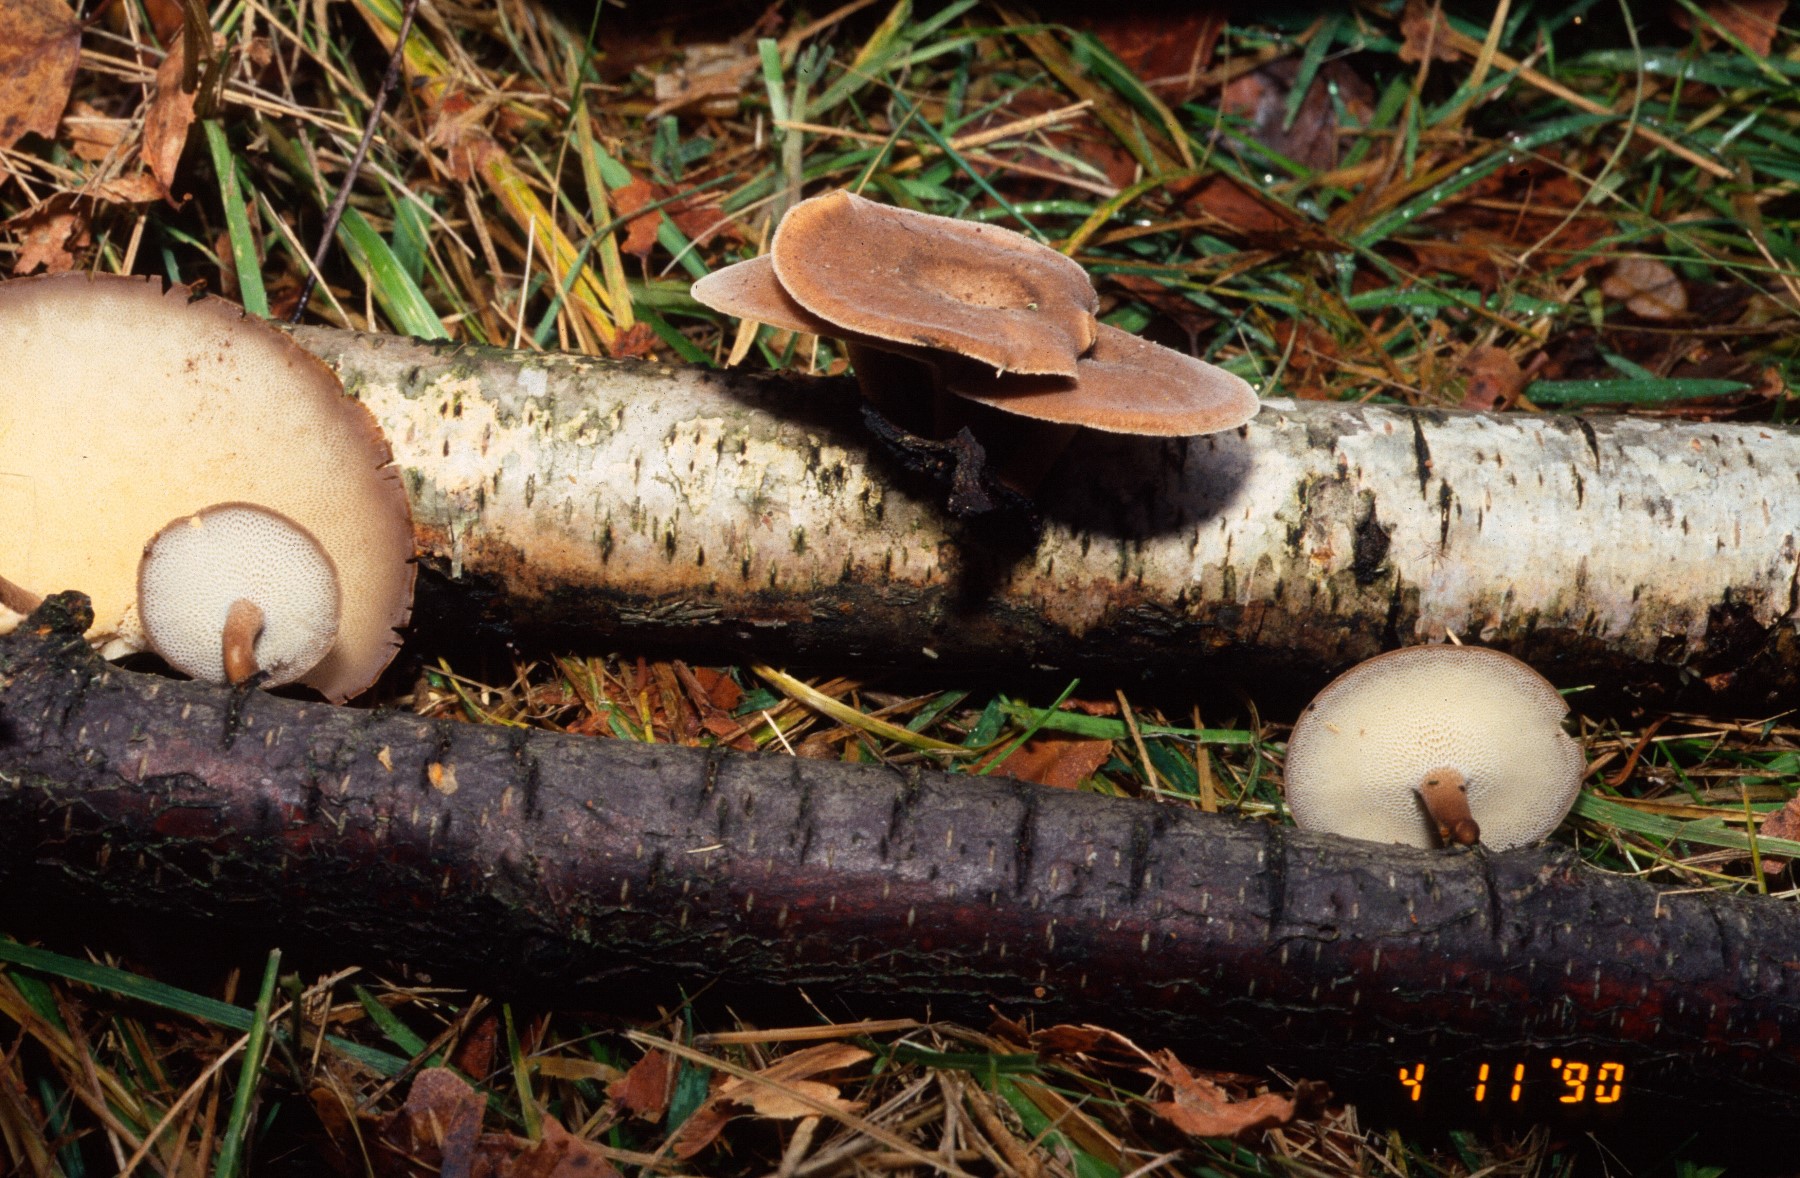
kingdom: Fungi
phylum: Basidiomycota
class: Agaricomycetes
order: Polyporales
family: Polyporaceae
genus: Lentinus
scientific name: Lentinus brumalis
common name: vinter-stilkporesvamp
